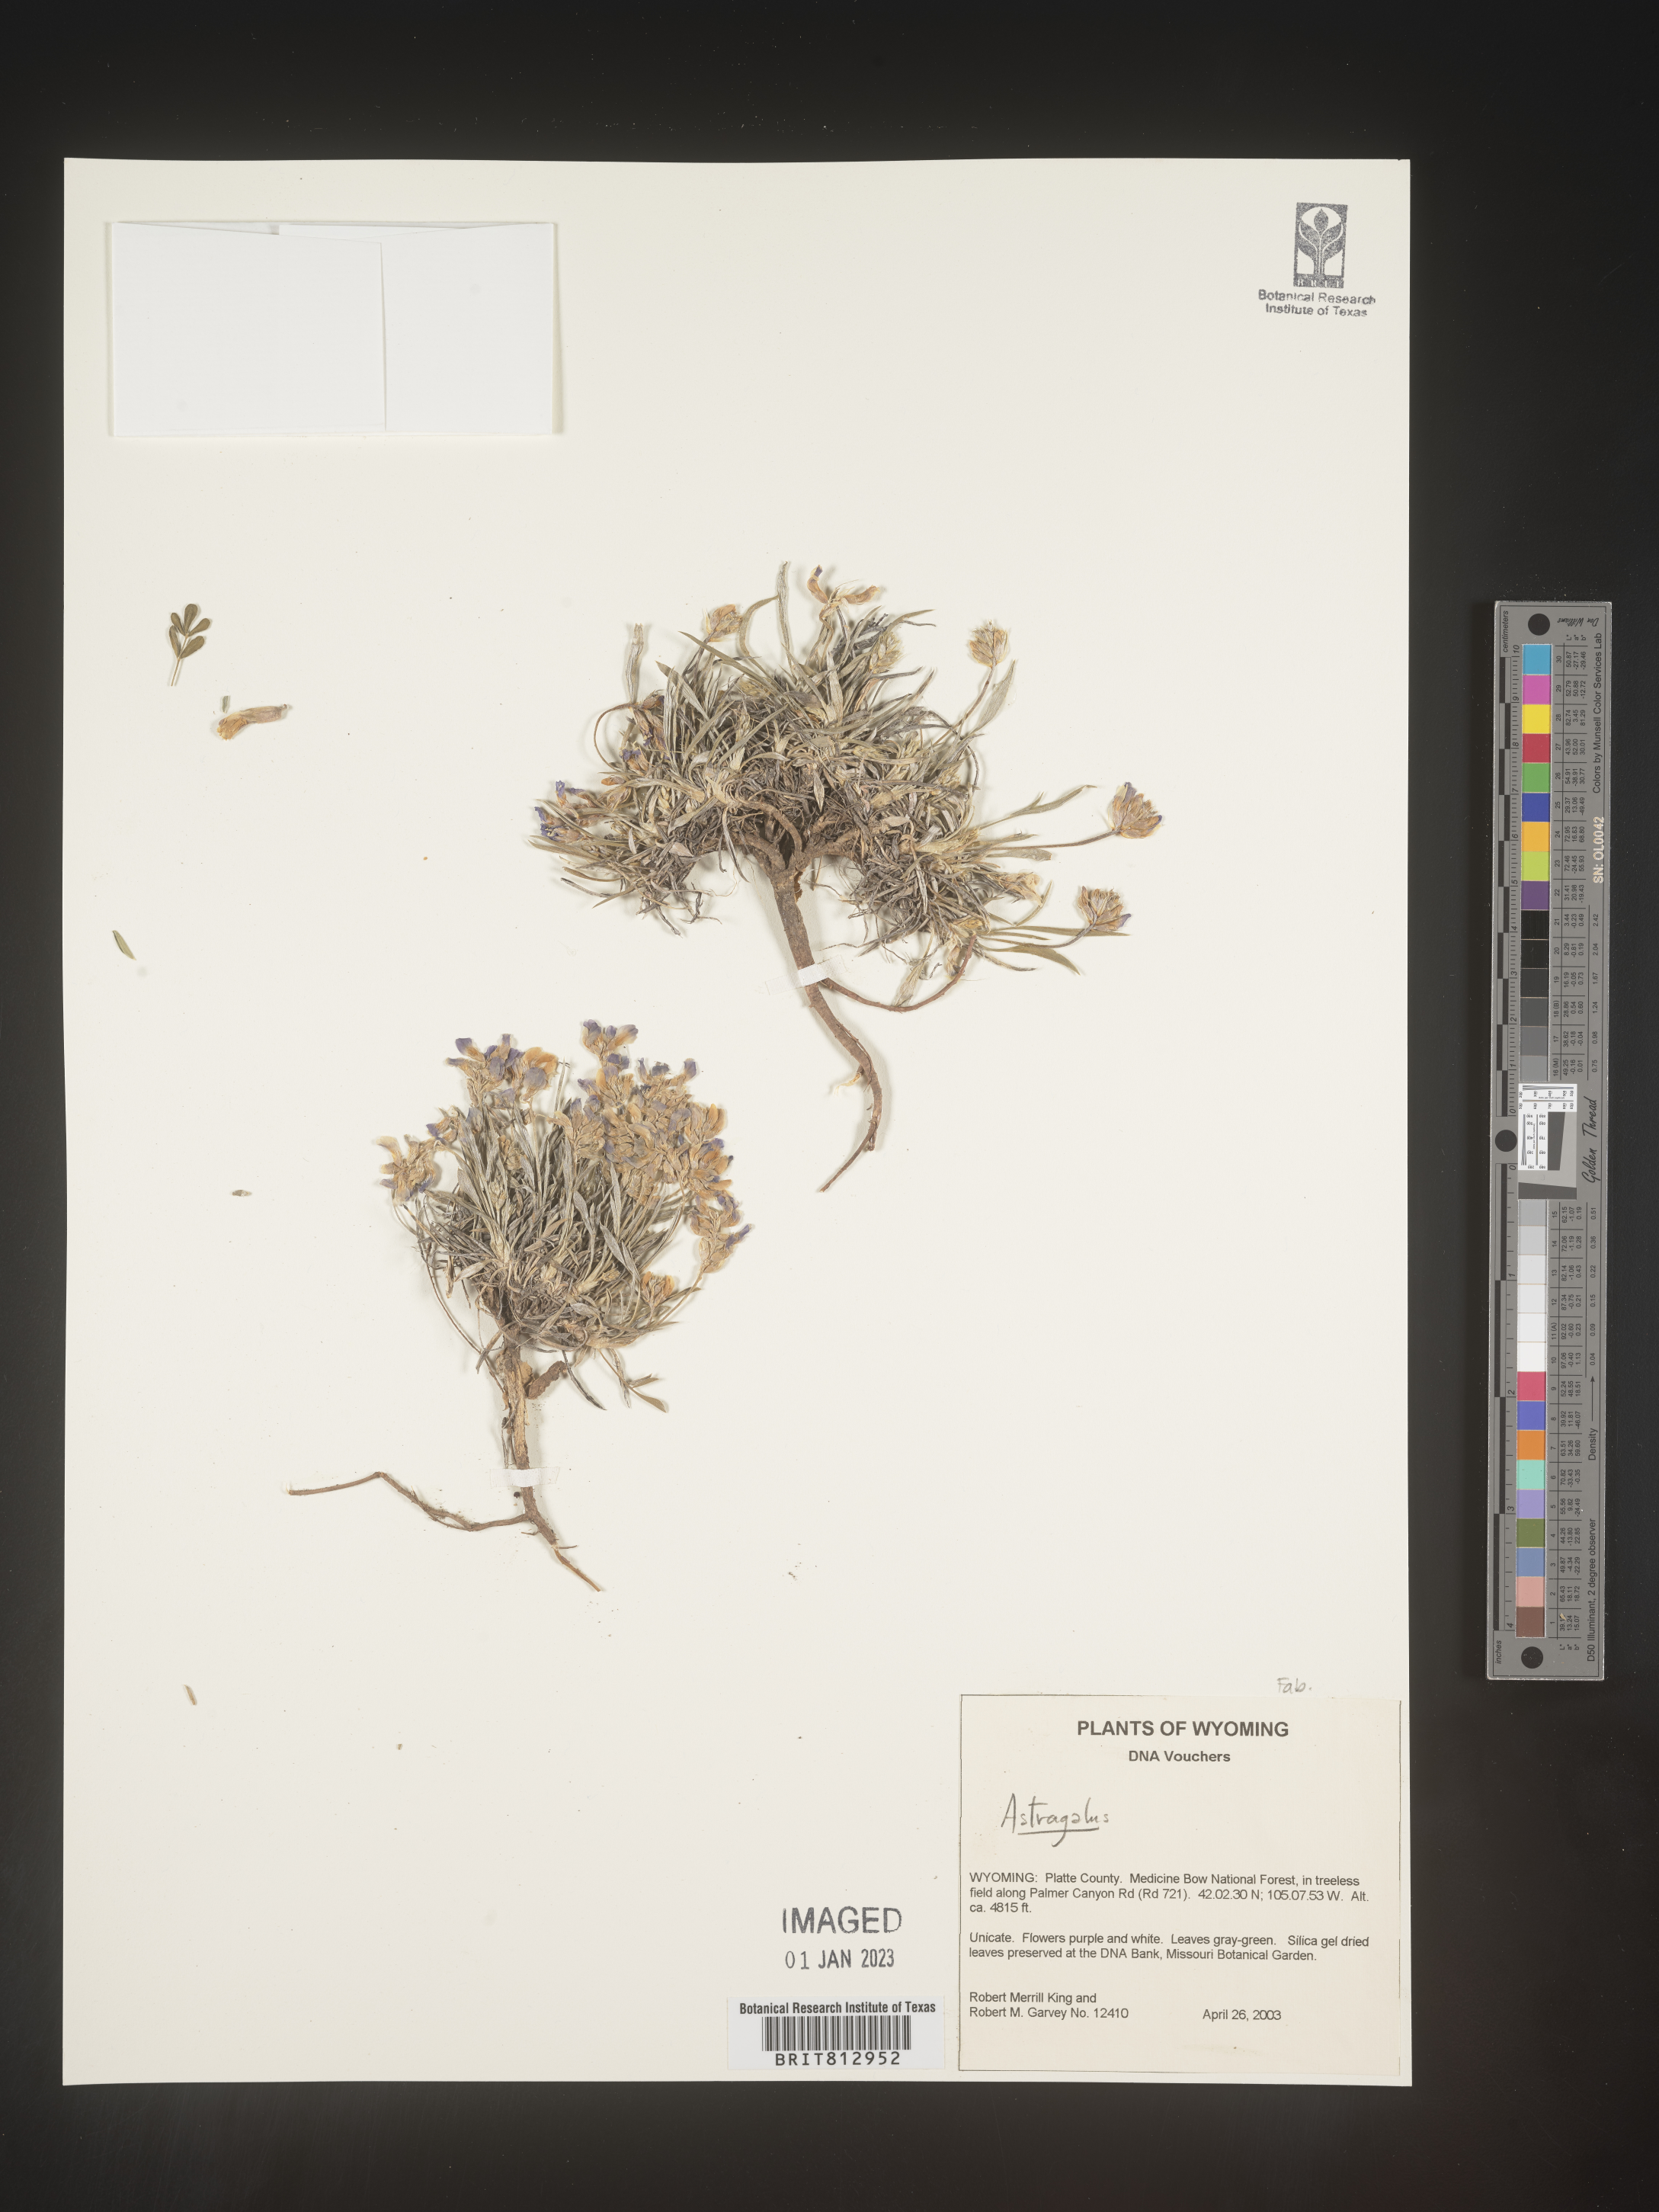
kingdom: Plantae
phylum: Tracheophyta
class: Magnoliopsida
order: Fabales
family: Fabaceae
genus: Astragalus
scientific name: Astragalus
